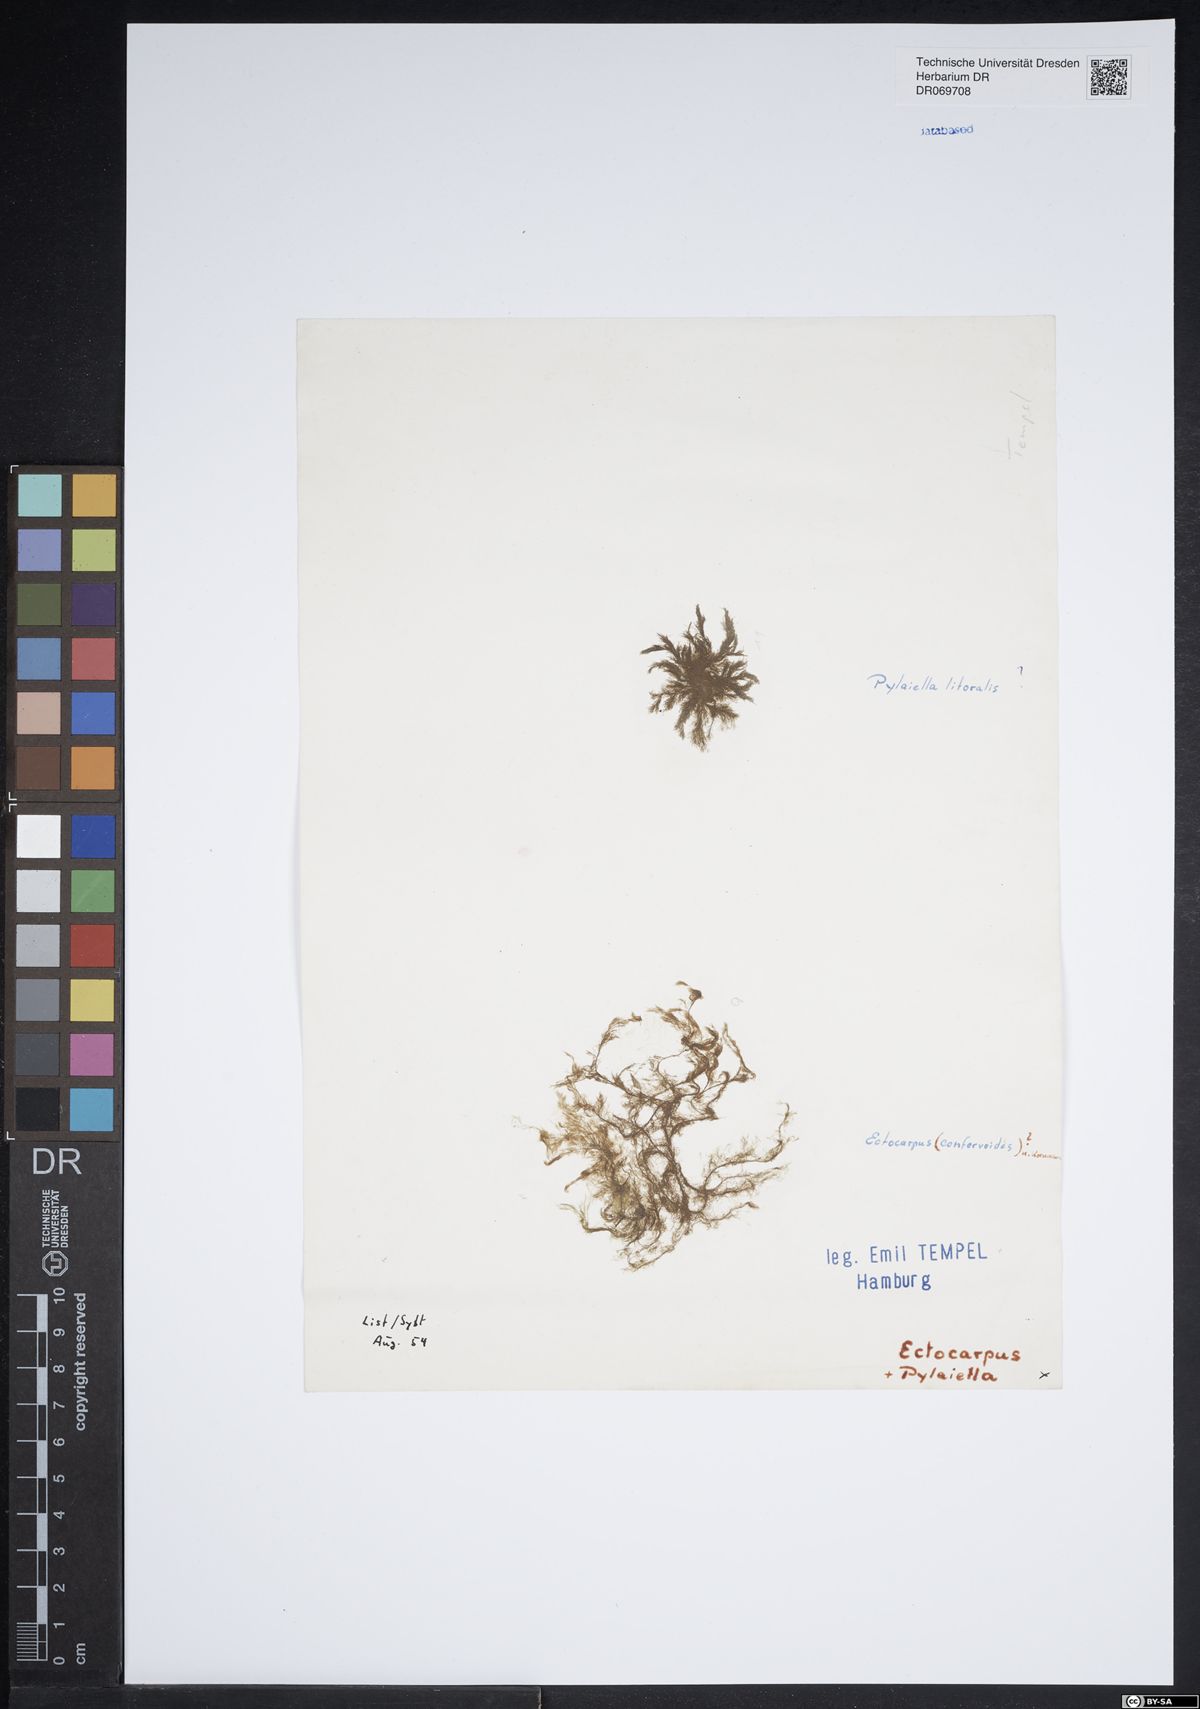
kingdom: Chromista
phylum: Ochrophyta
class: Phaeophyceae
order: Ectocarpales
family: Ectocarpaceae
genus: Ectocarpus
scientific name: Ectocarpus siliculosus
